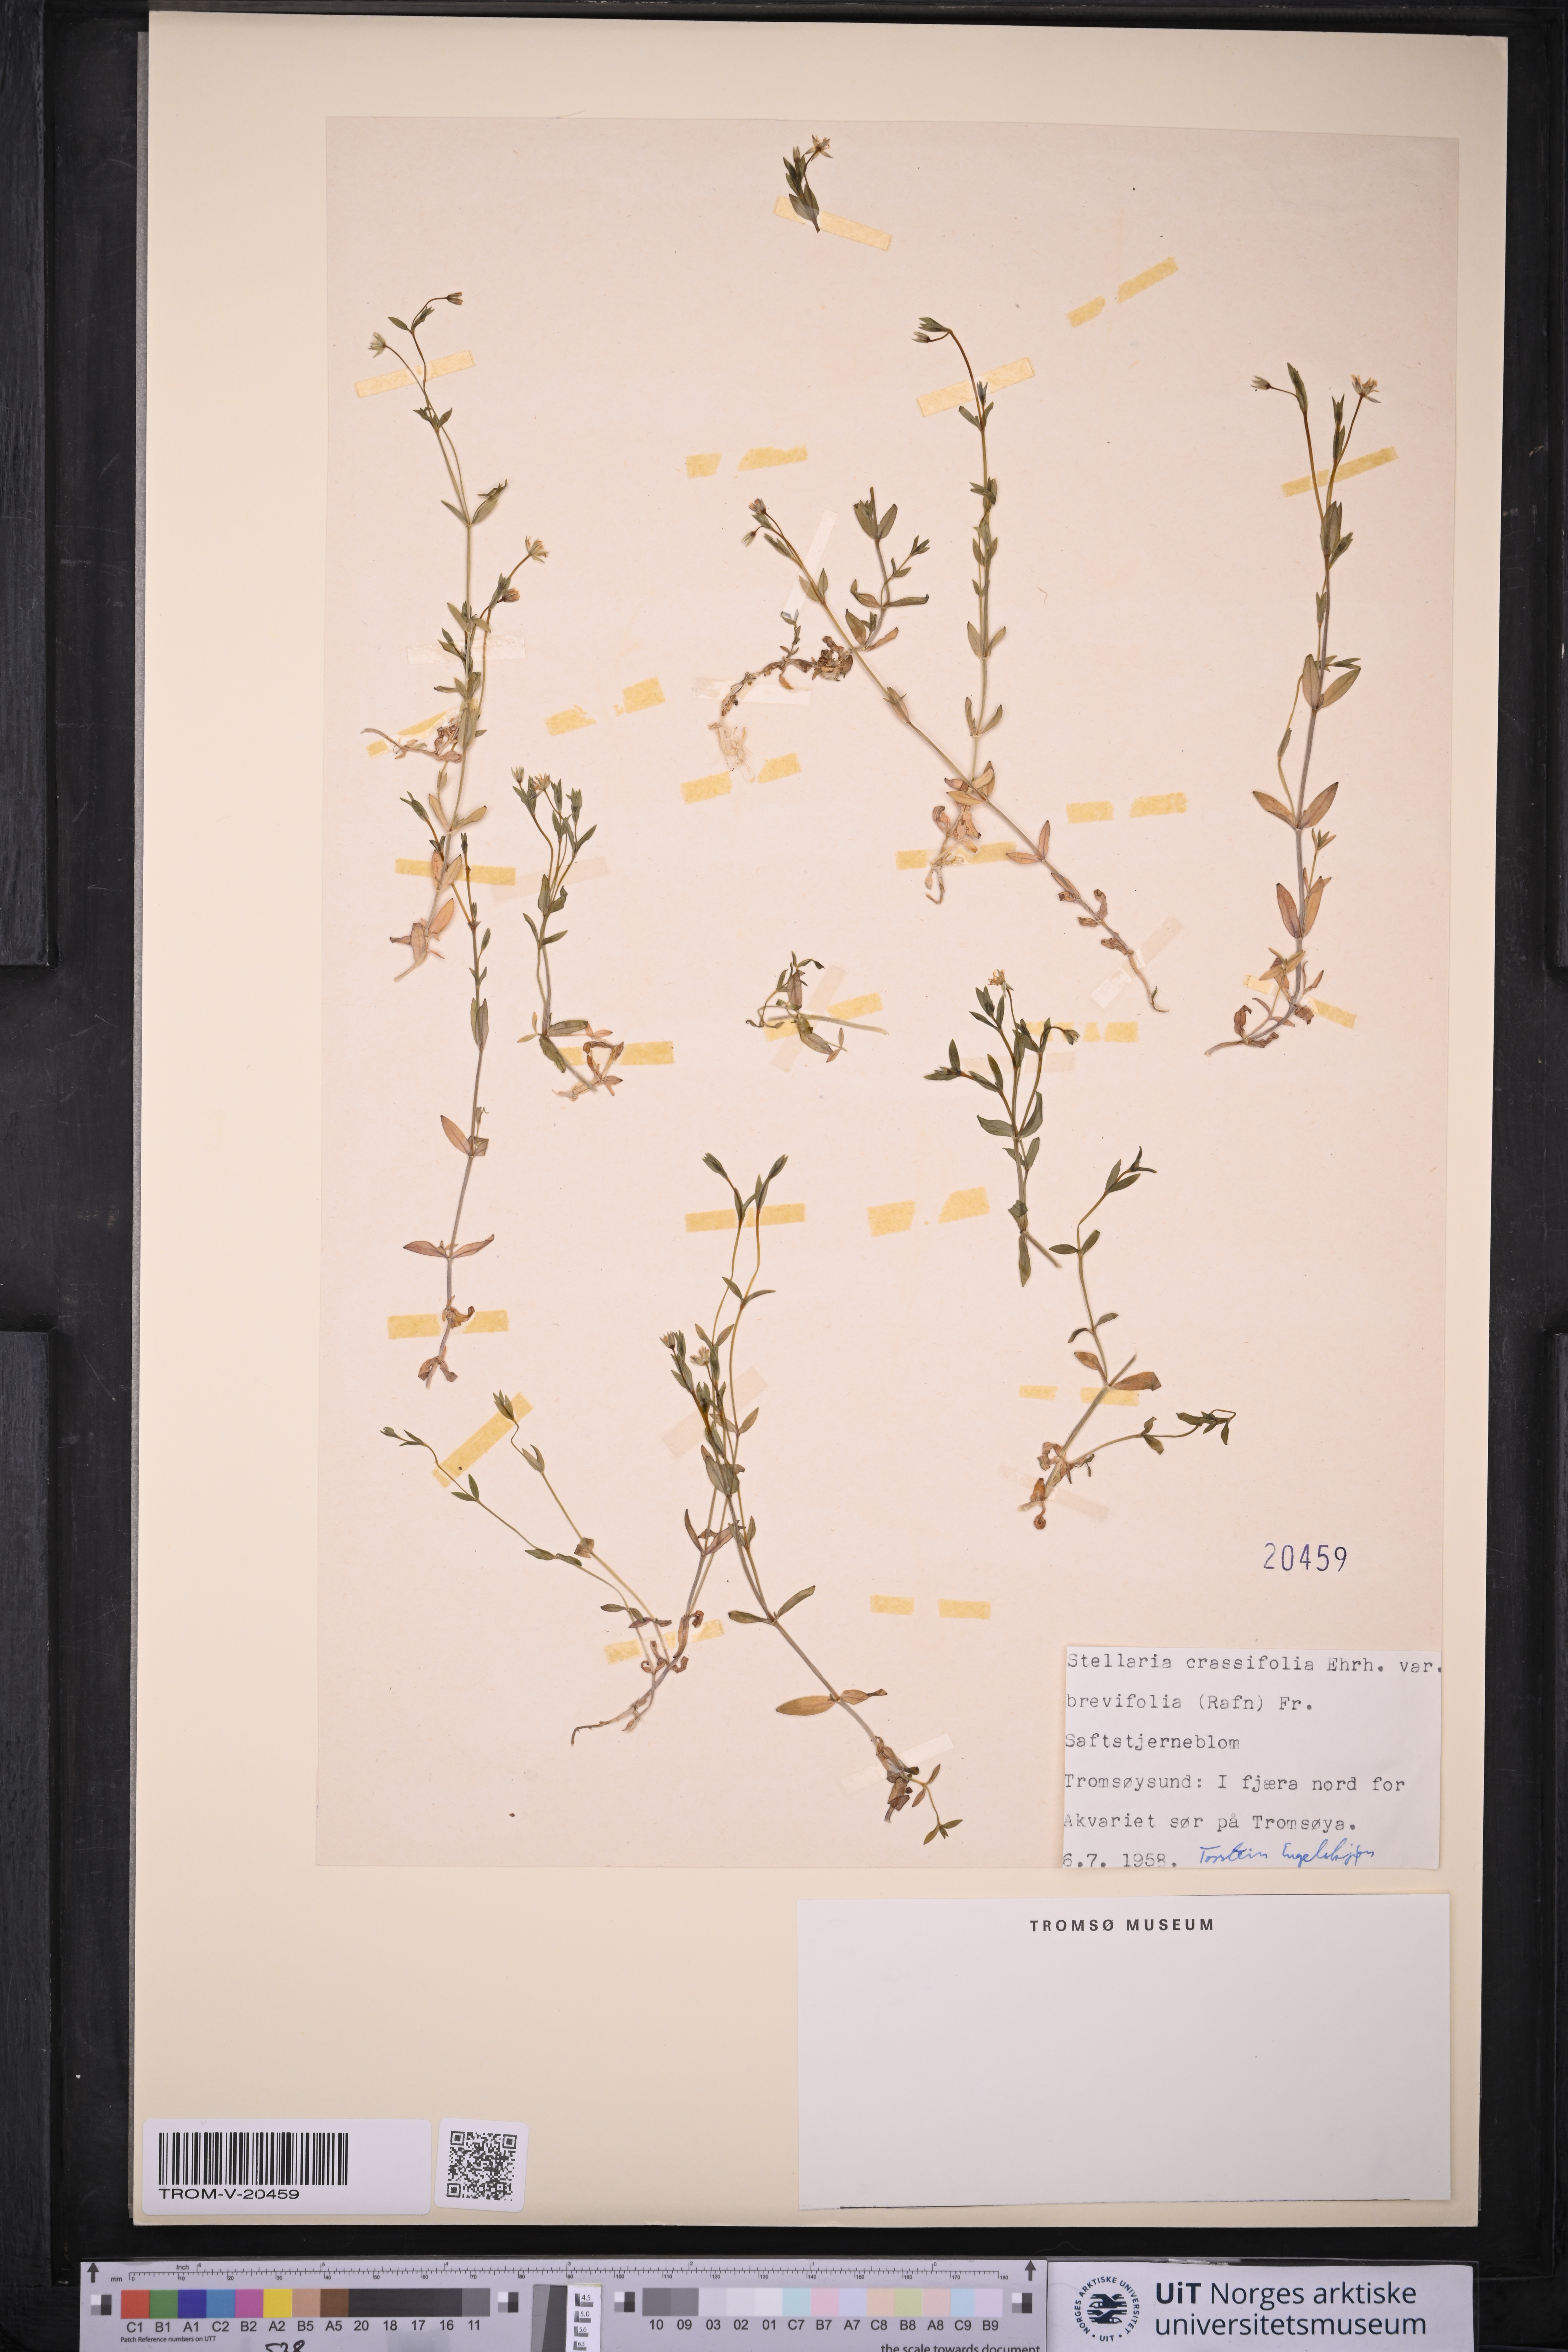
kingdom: Plantae
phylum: Tracheophyta
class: Magnoliopsida
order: Caryophyllales
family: Caryophyllaceae
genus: Stellaria
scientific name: Stellaria crassifolia
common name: Fleshy starwort
